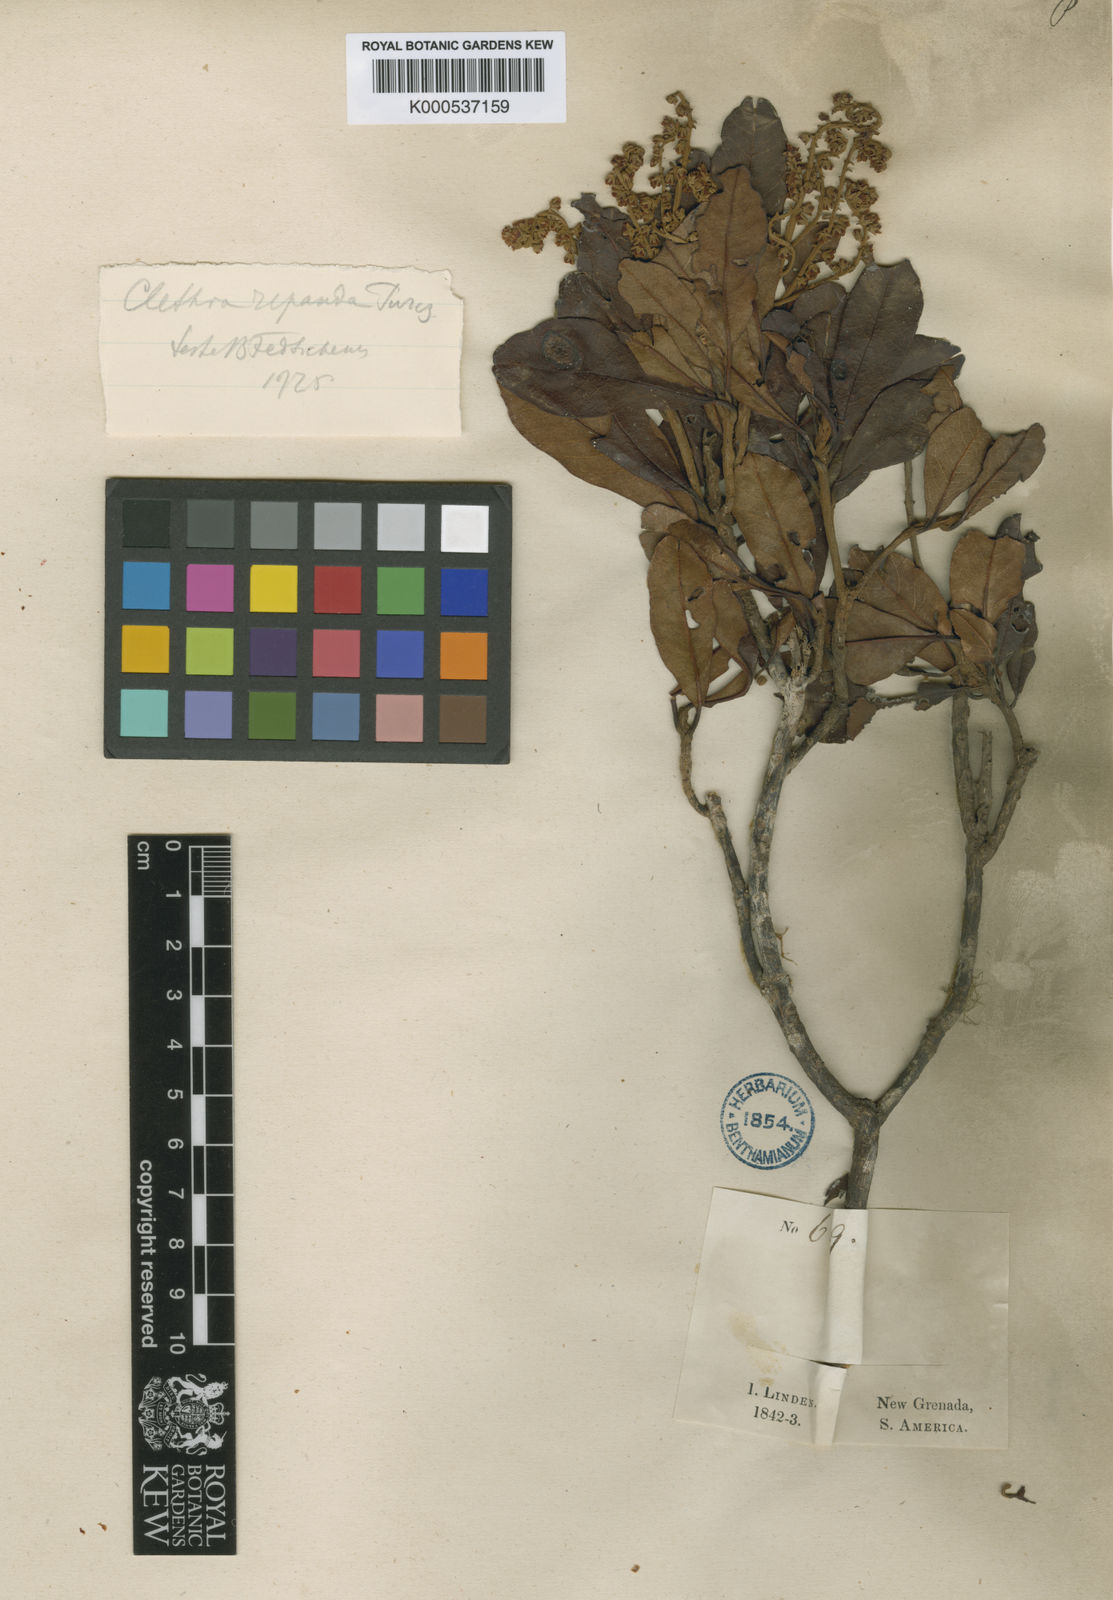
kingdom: Plantae
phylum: Tracheophyta
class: Magnoliopsida
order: Ericales
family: Clethraceae
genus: Clethra
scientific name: Clethra repanda
